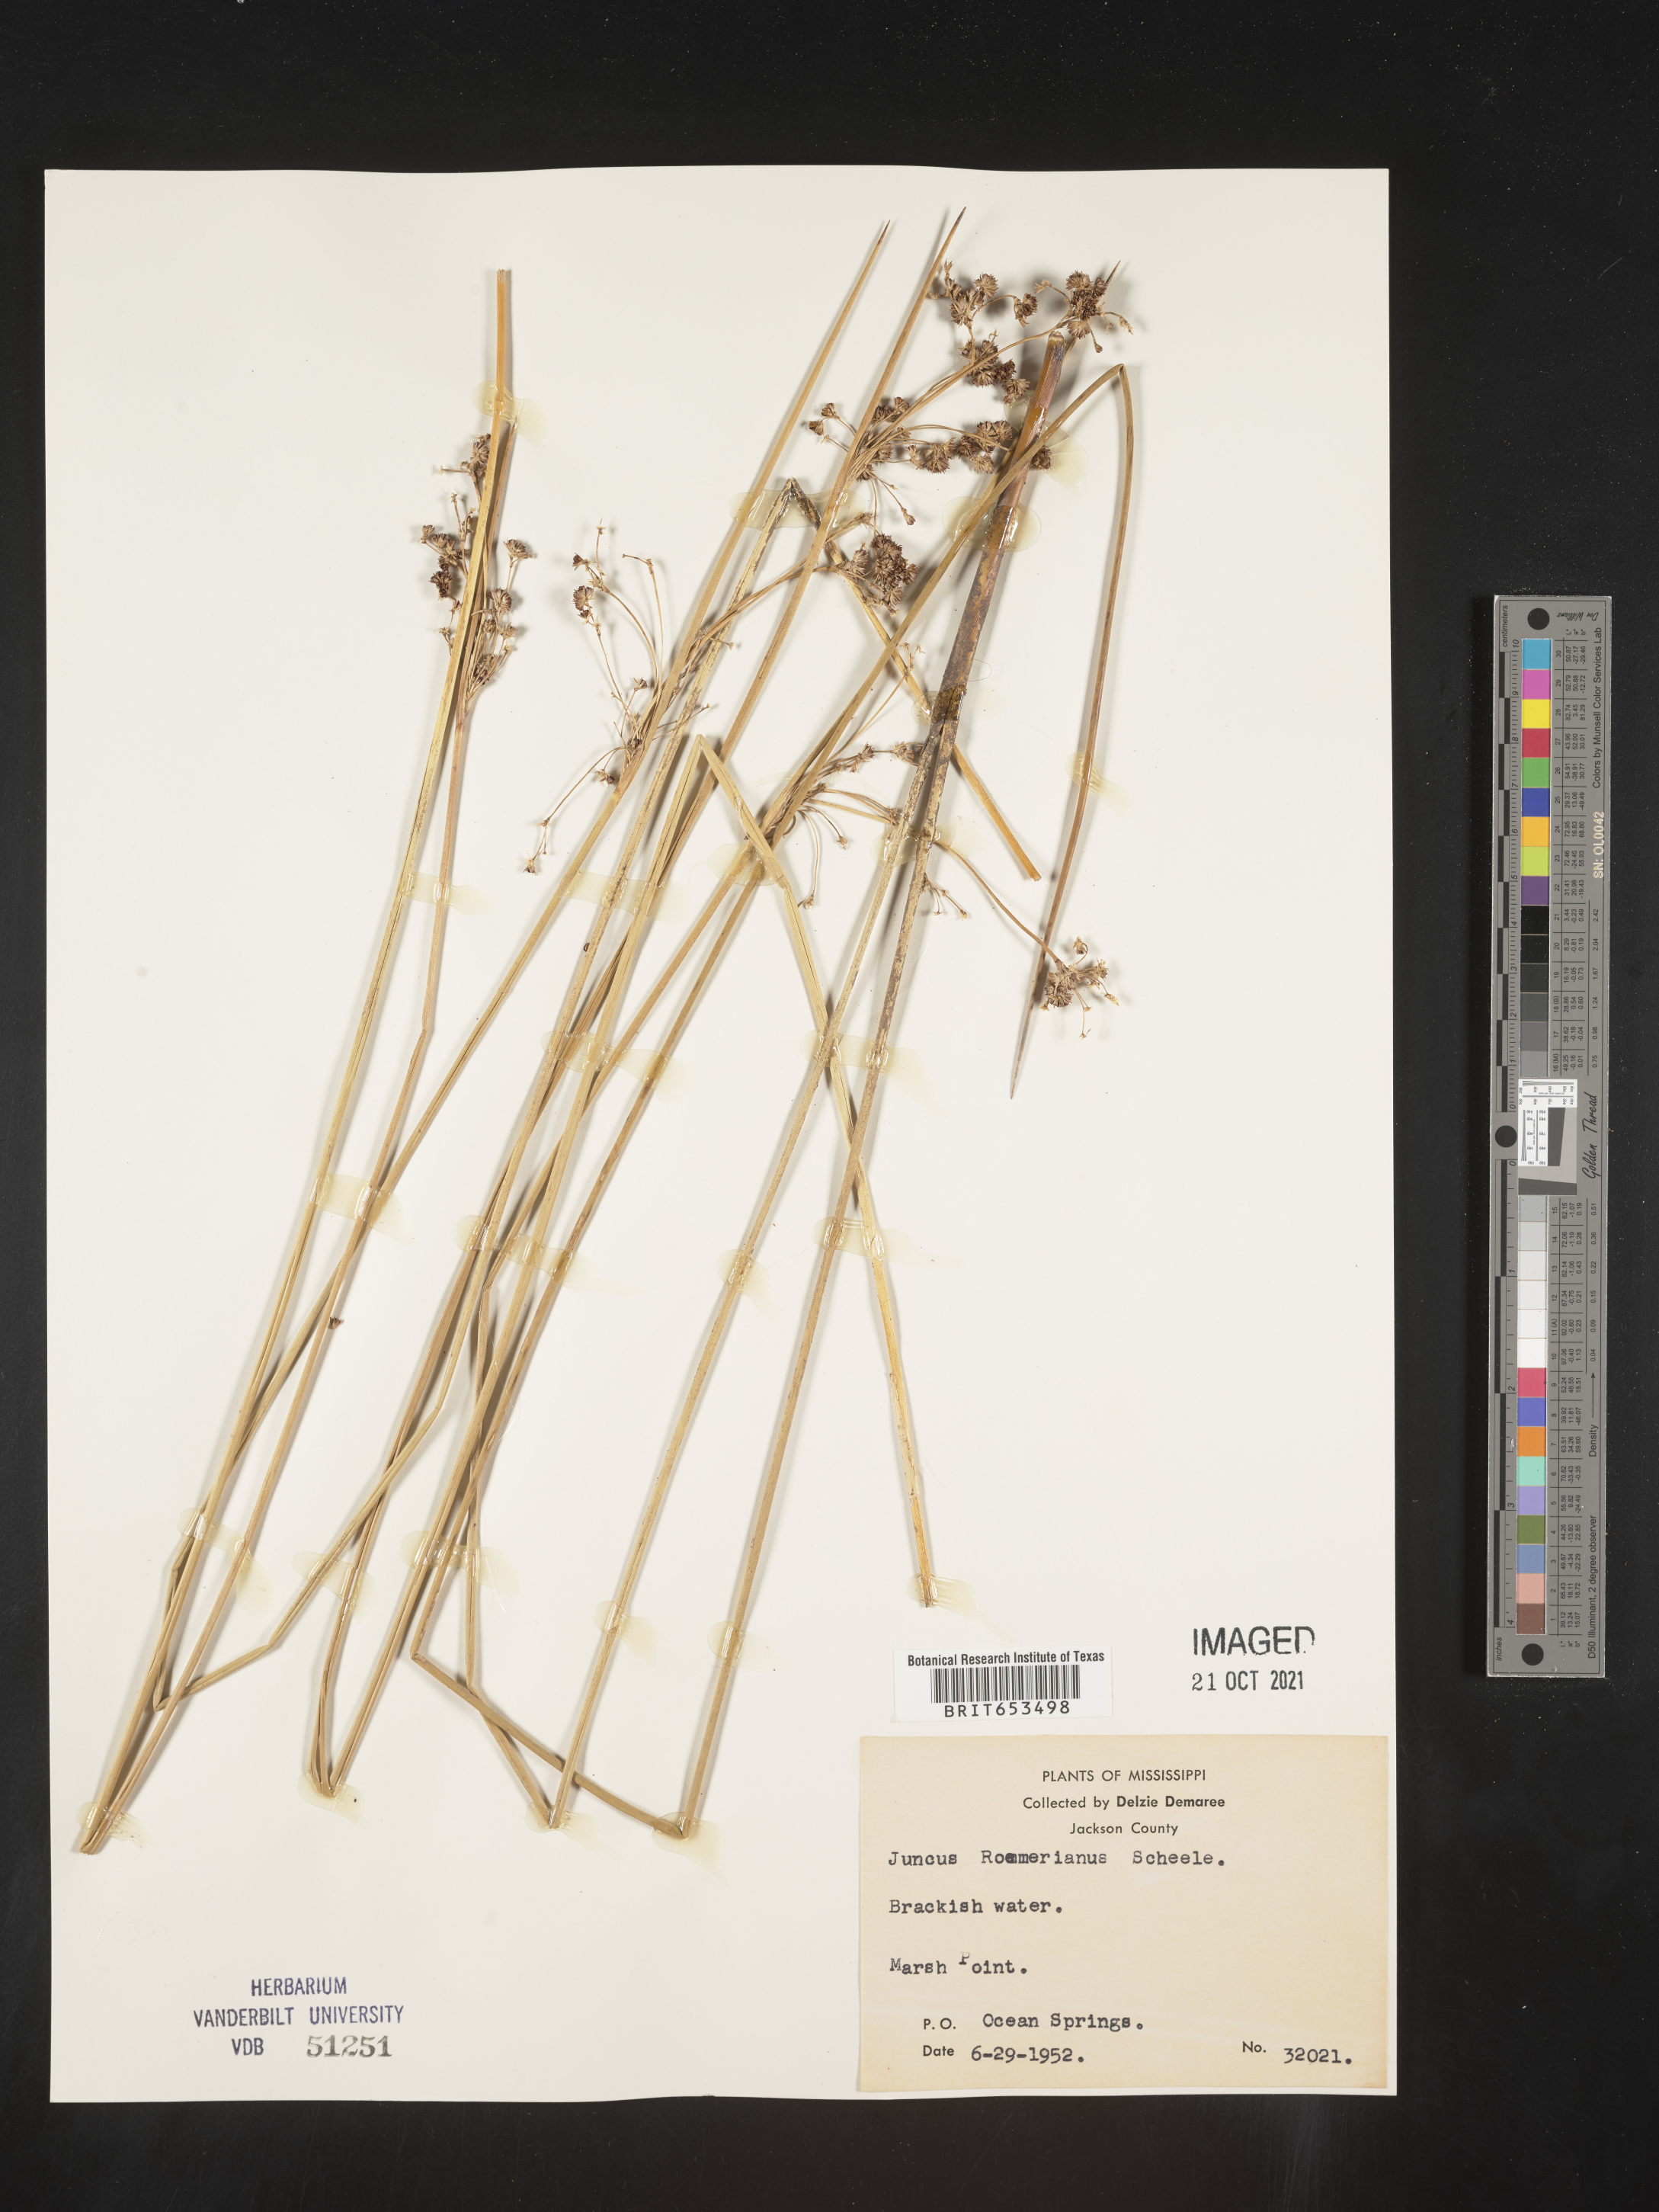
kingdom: Plantae
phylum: Tracheophyta
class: Liliopsida
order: Poales
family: Juncaceae
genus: Juncus
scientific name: Juncus roemerianus
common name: Roemer's rush
